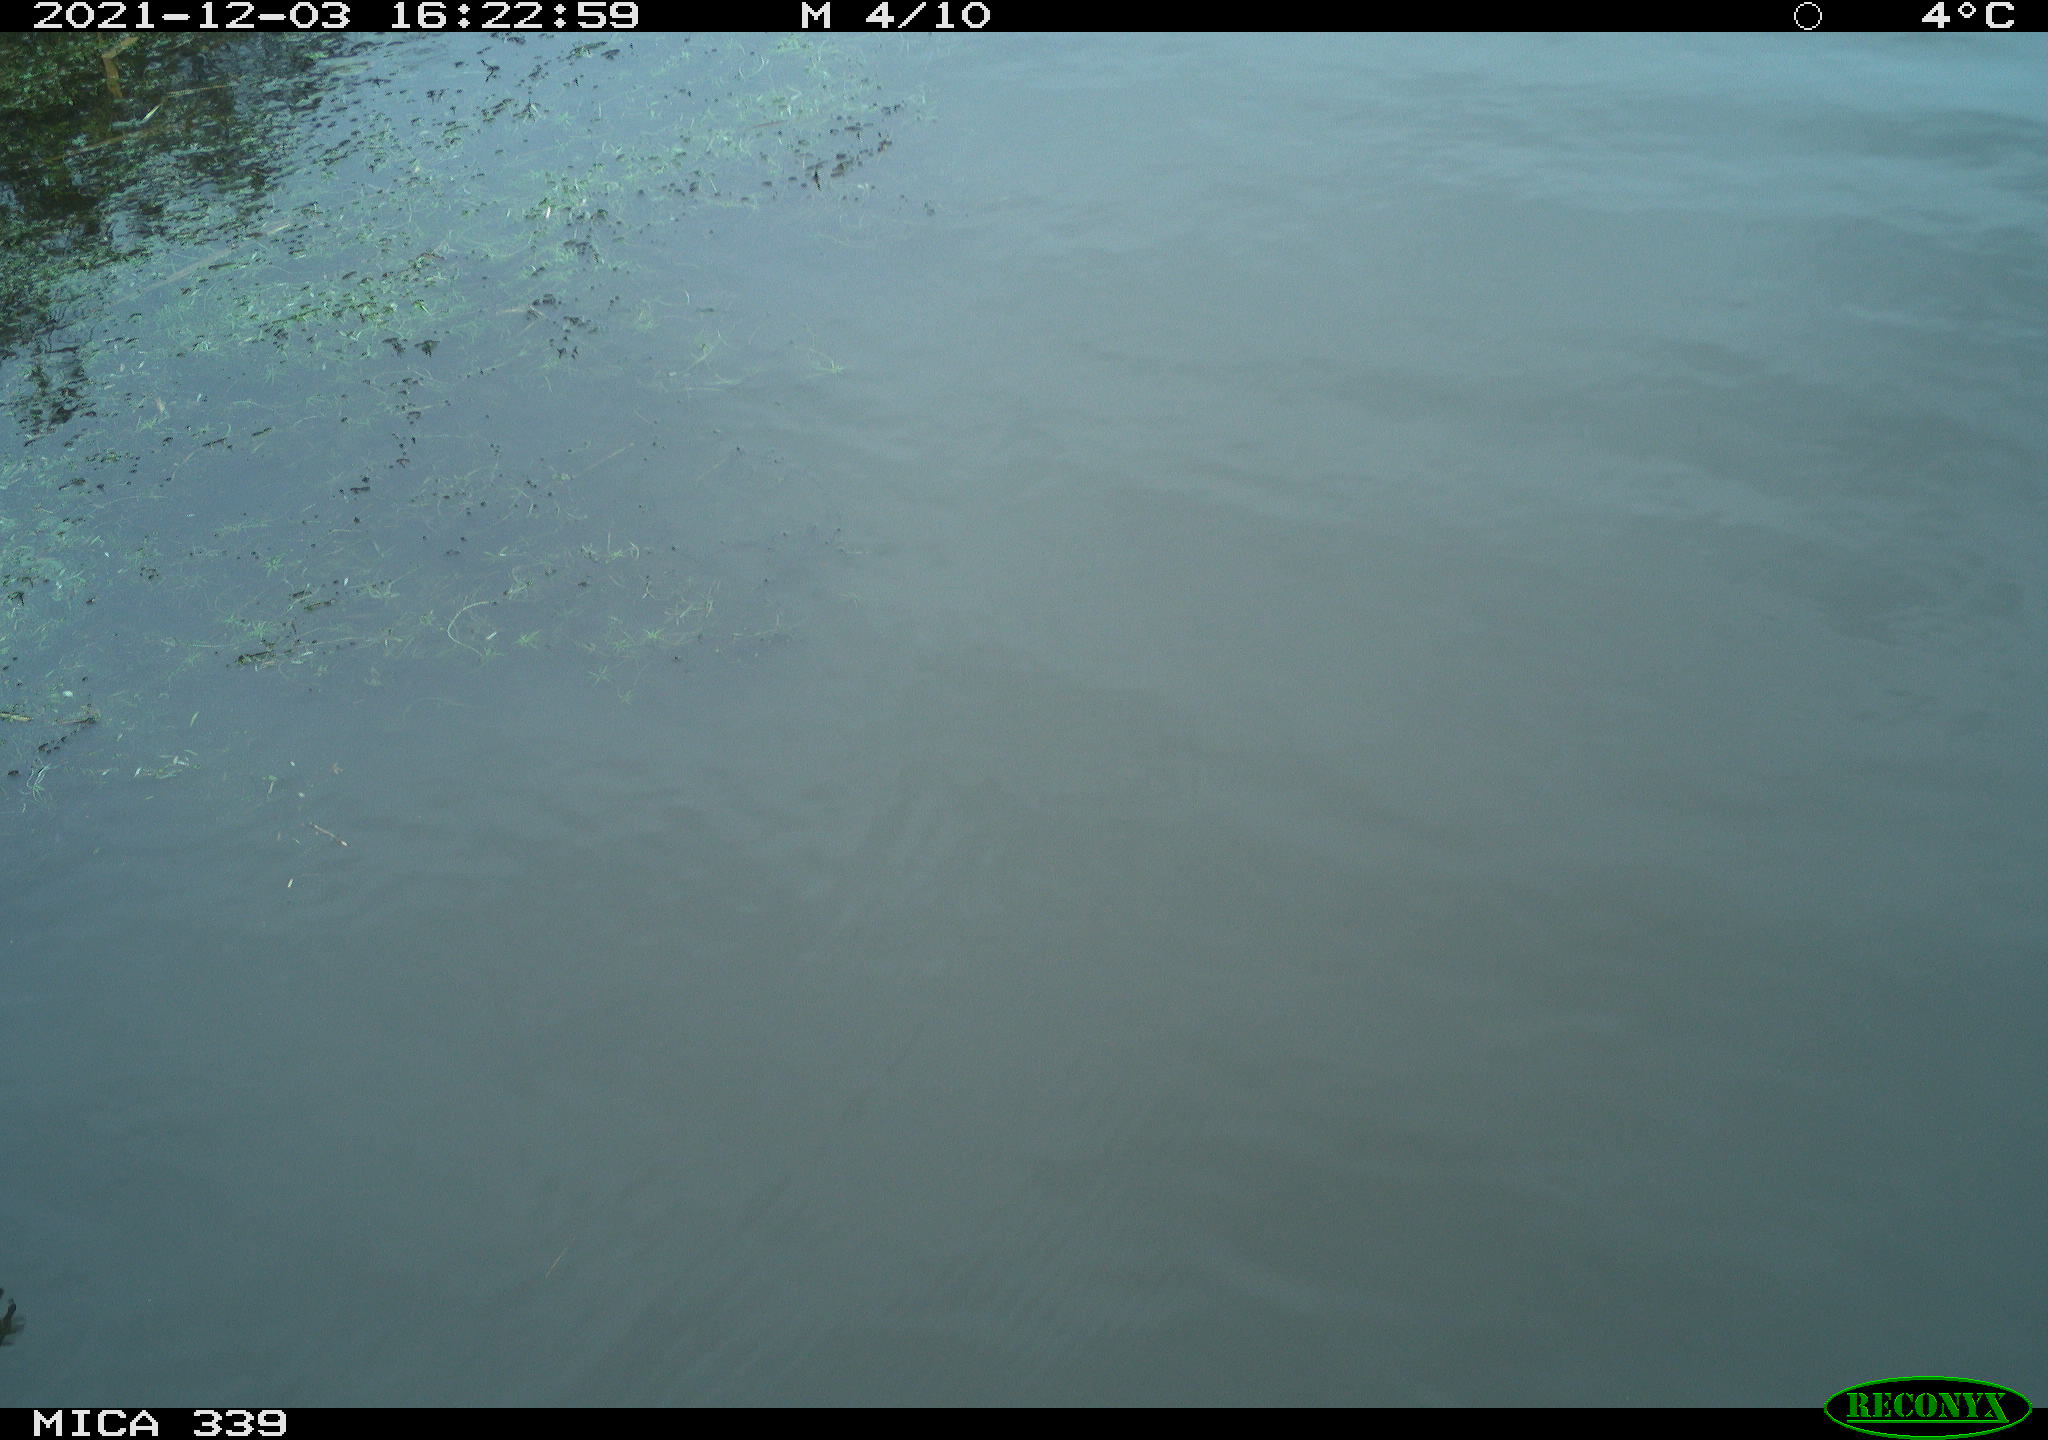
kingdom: Animalia
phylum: Chordata
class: Aves
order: Gruiformes
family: Rallidae
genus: Gallinula
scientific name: Gallinula chloropus
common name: Common moorhen
